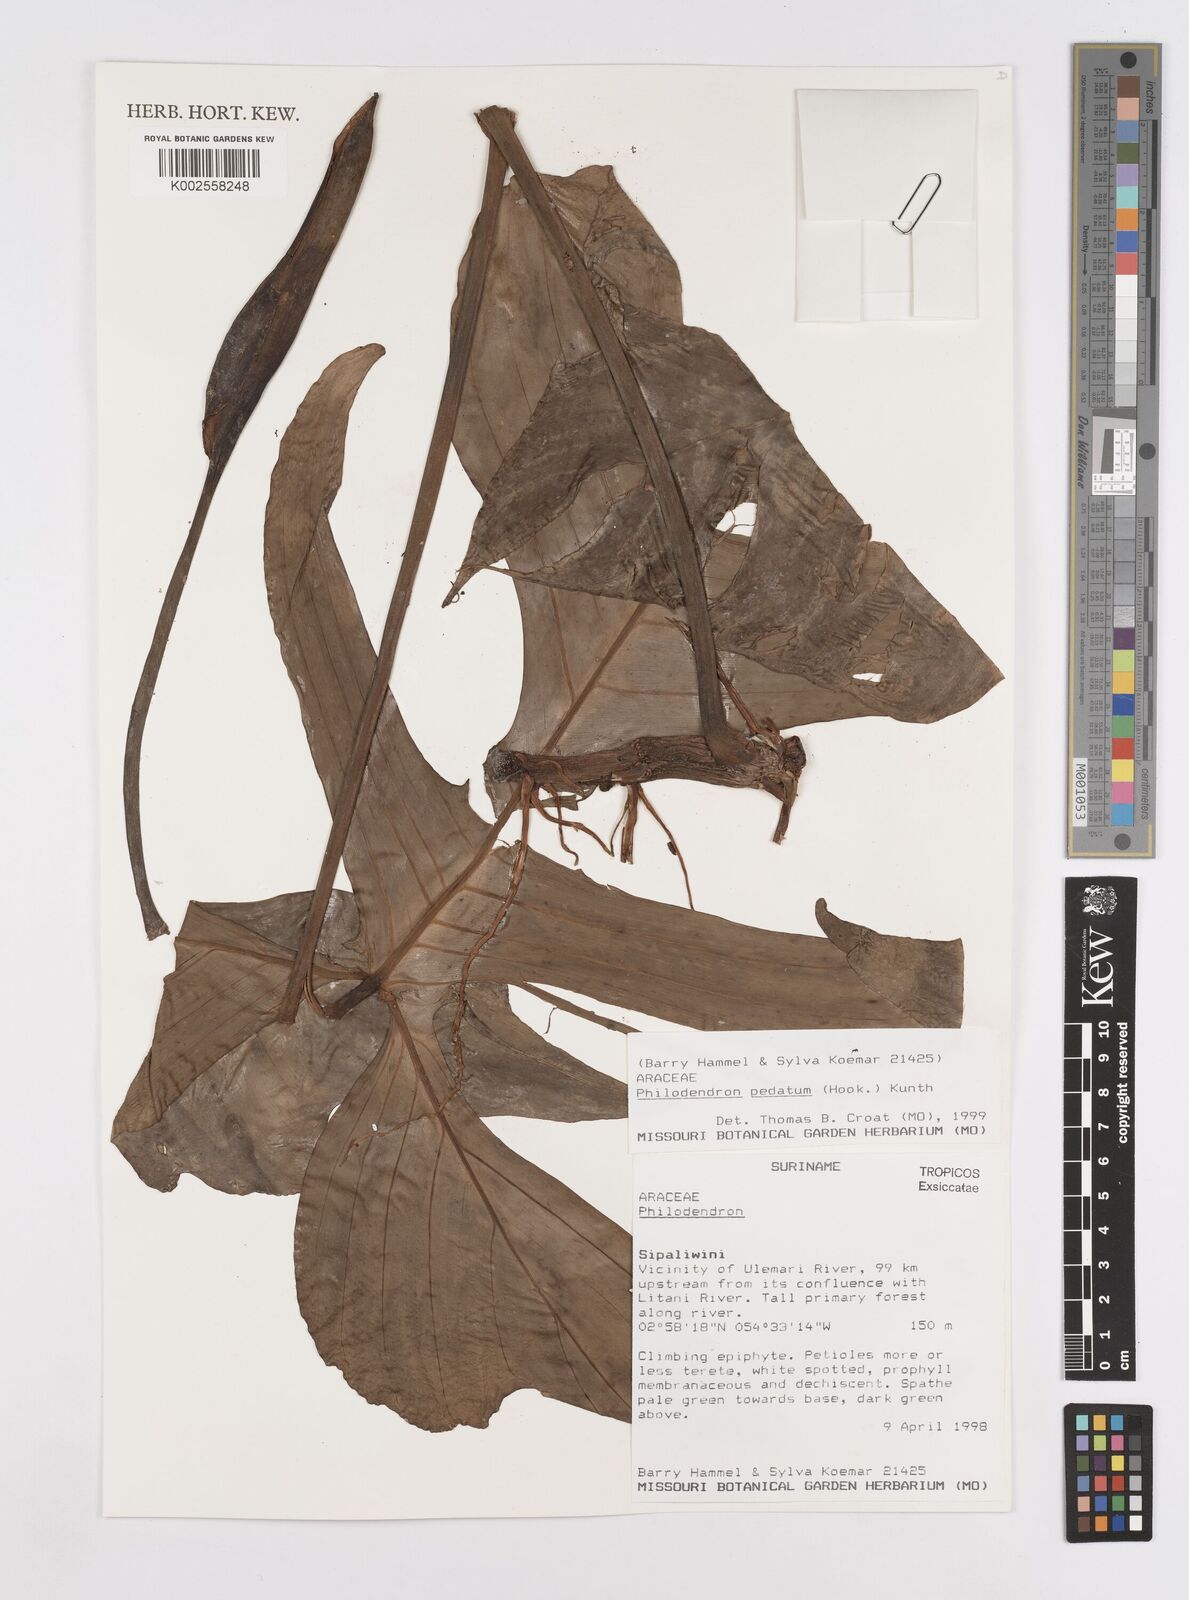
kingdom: Plantae
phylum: Tracheophyta
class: Liliopsida
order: Alismatales
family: Araceae
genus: Philodendron
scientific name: Philodendron pedatum
